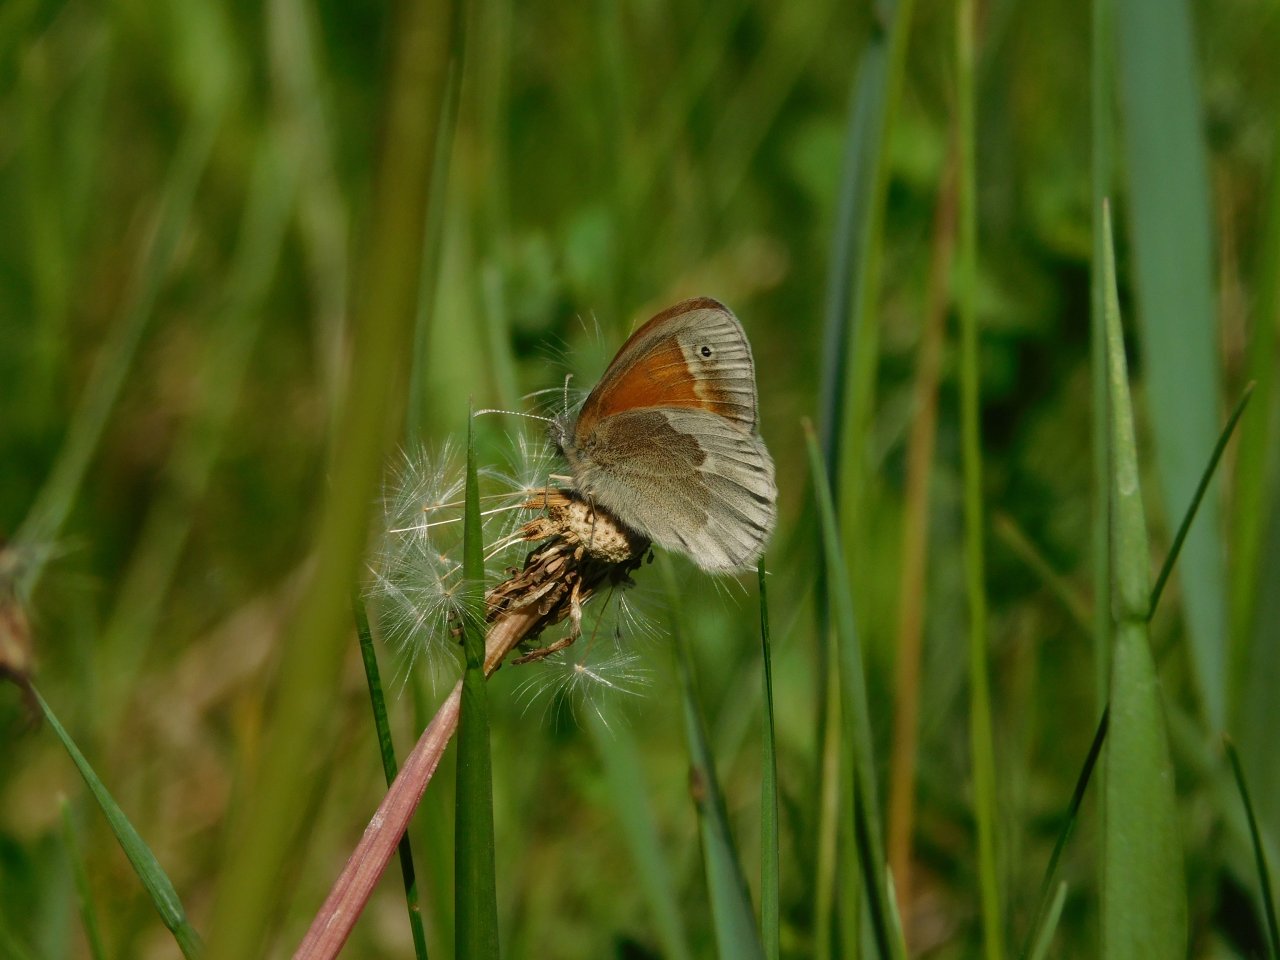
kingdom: Animalia
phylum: Arthropoda
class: Insecta
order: Lepidoptera
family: Nymphalidae
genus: Coenonympha
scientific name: Coenonympha tullia
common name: Large Heath
